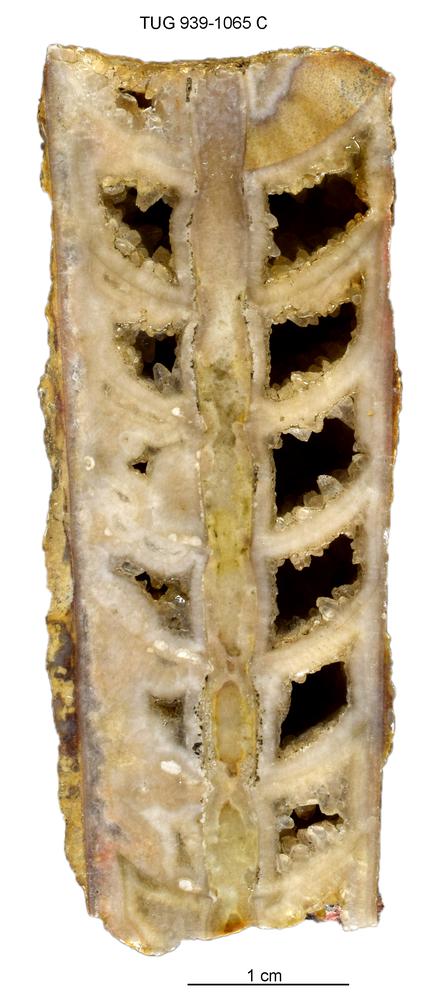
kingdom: Animalia
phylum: Mollusca
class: Cephalopoda
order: Orthocerida
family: Geisonoceratidae
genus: Ordogeisonoceras
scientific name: Ordogeisonoceras tartuensis
